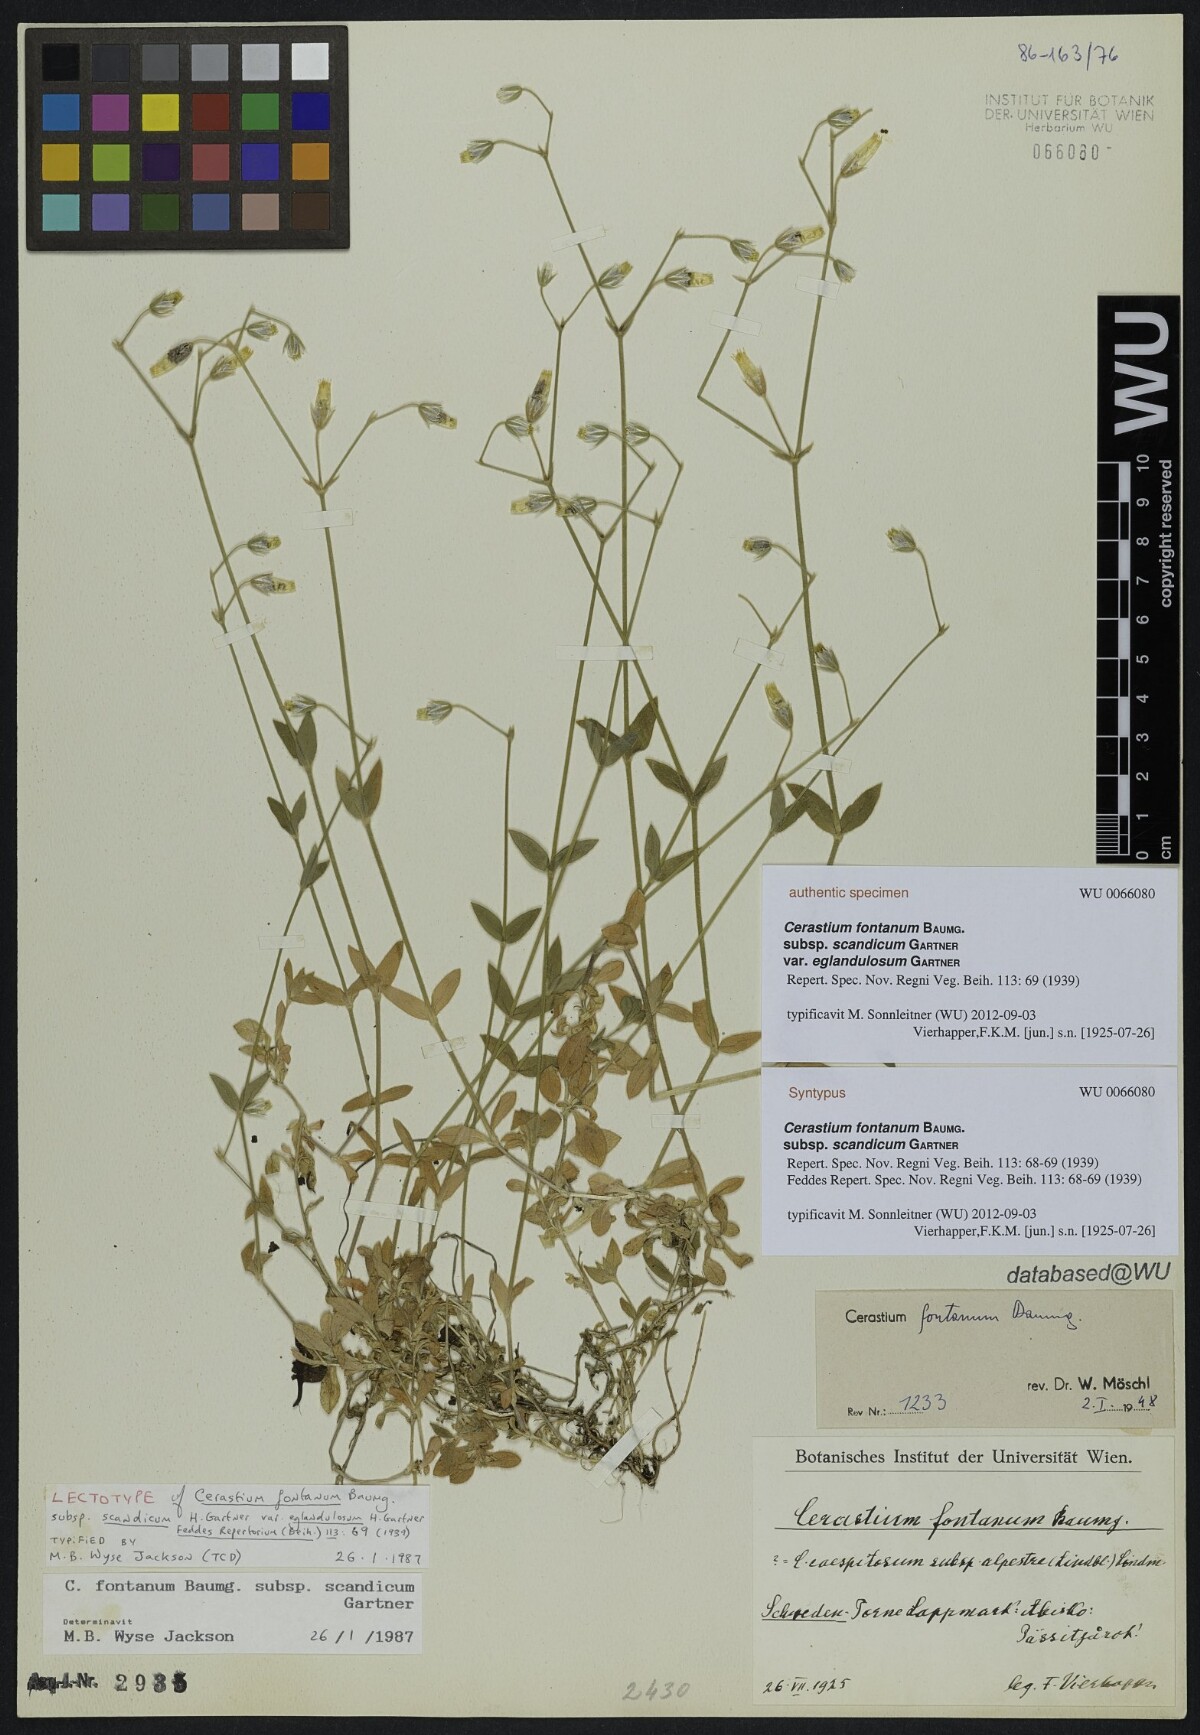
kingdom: Plantae
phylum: Tracheophyta
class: Magnoliopsida
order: Caryophyllales
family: Caryophyllaceae
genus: Cerastium
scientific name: Cerastium holosteoides
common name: Big chickweed
